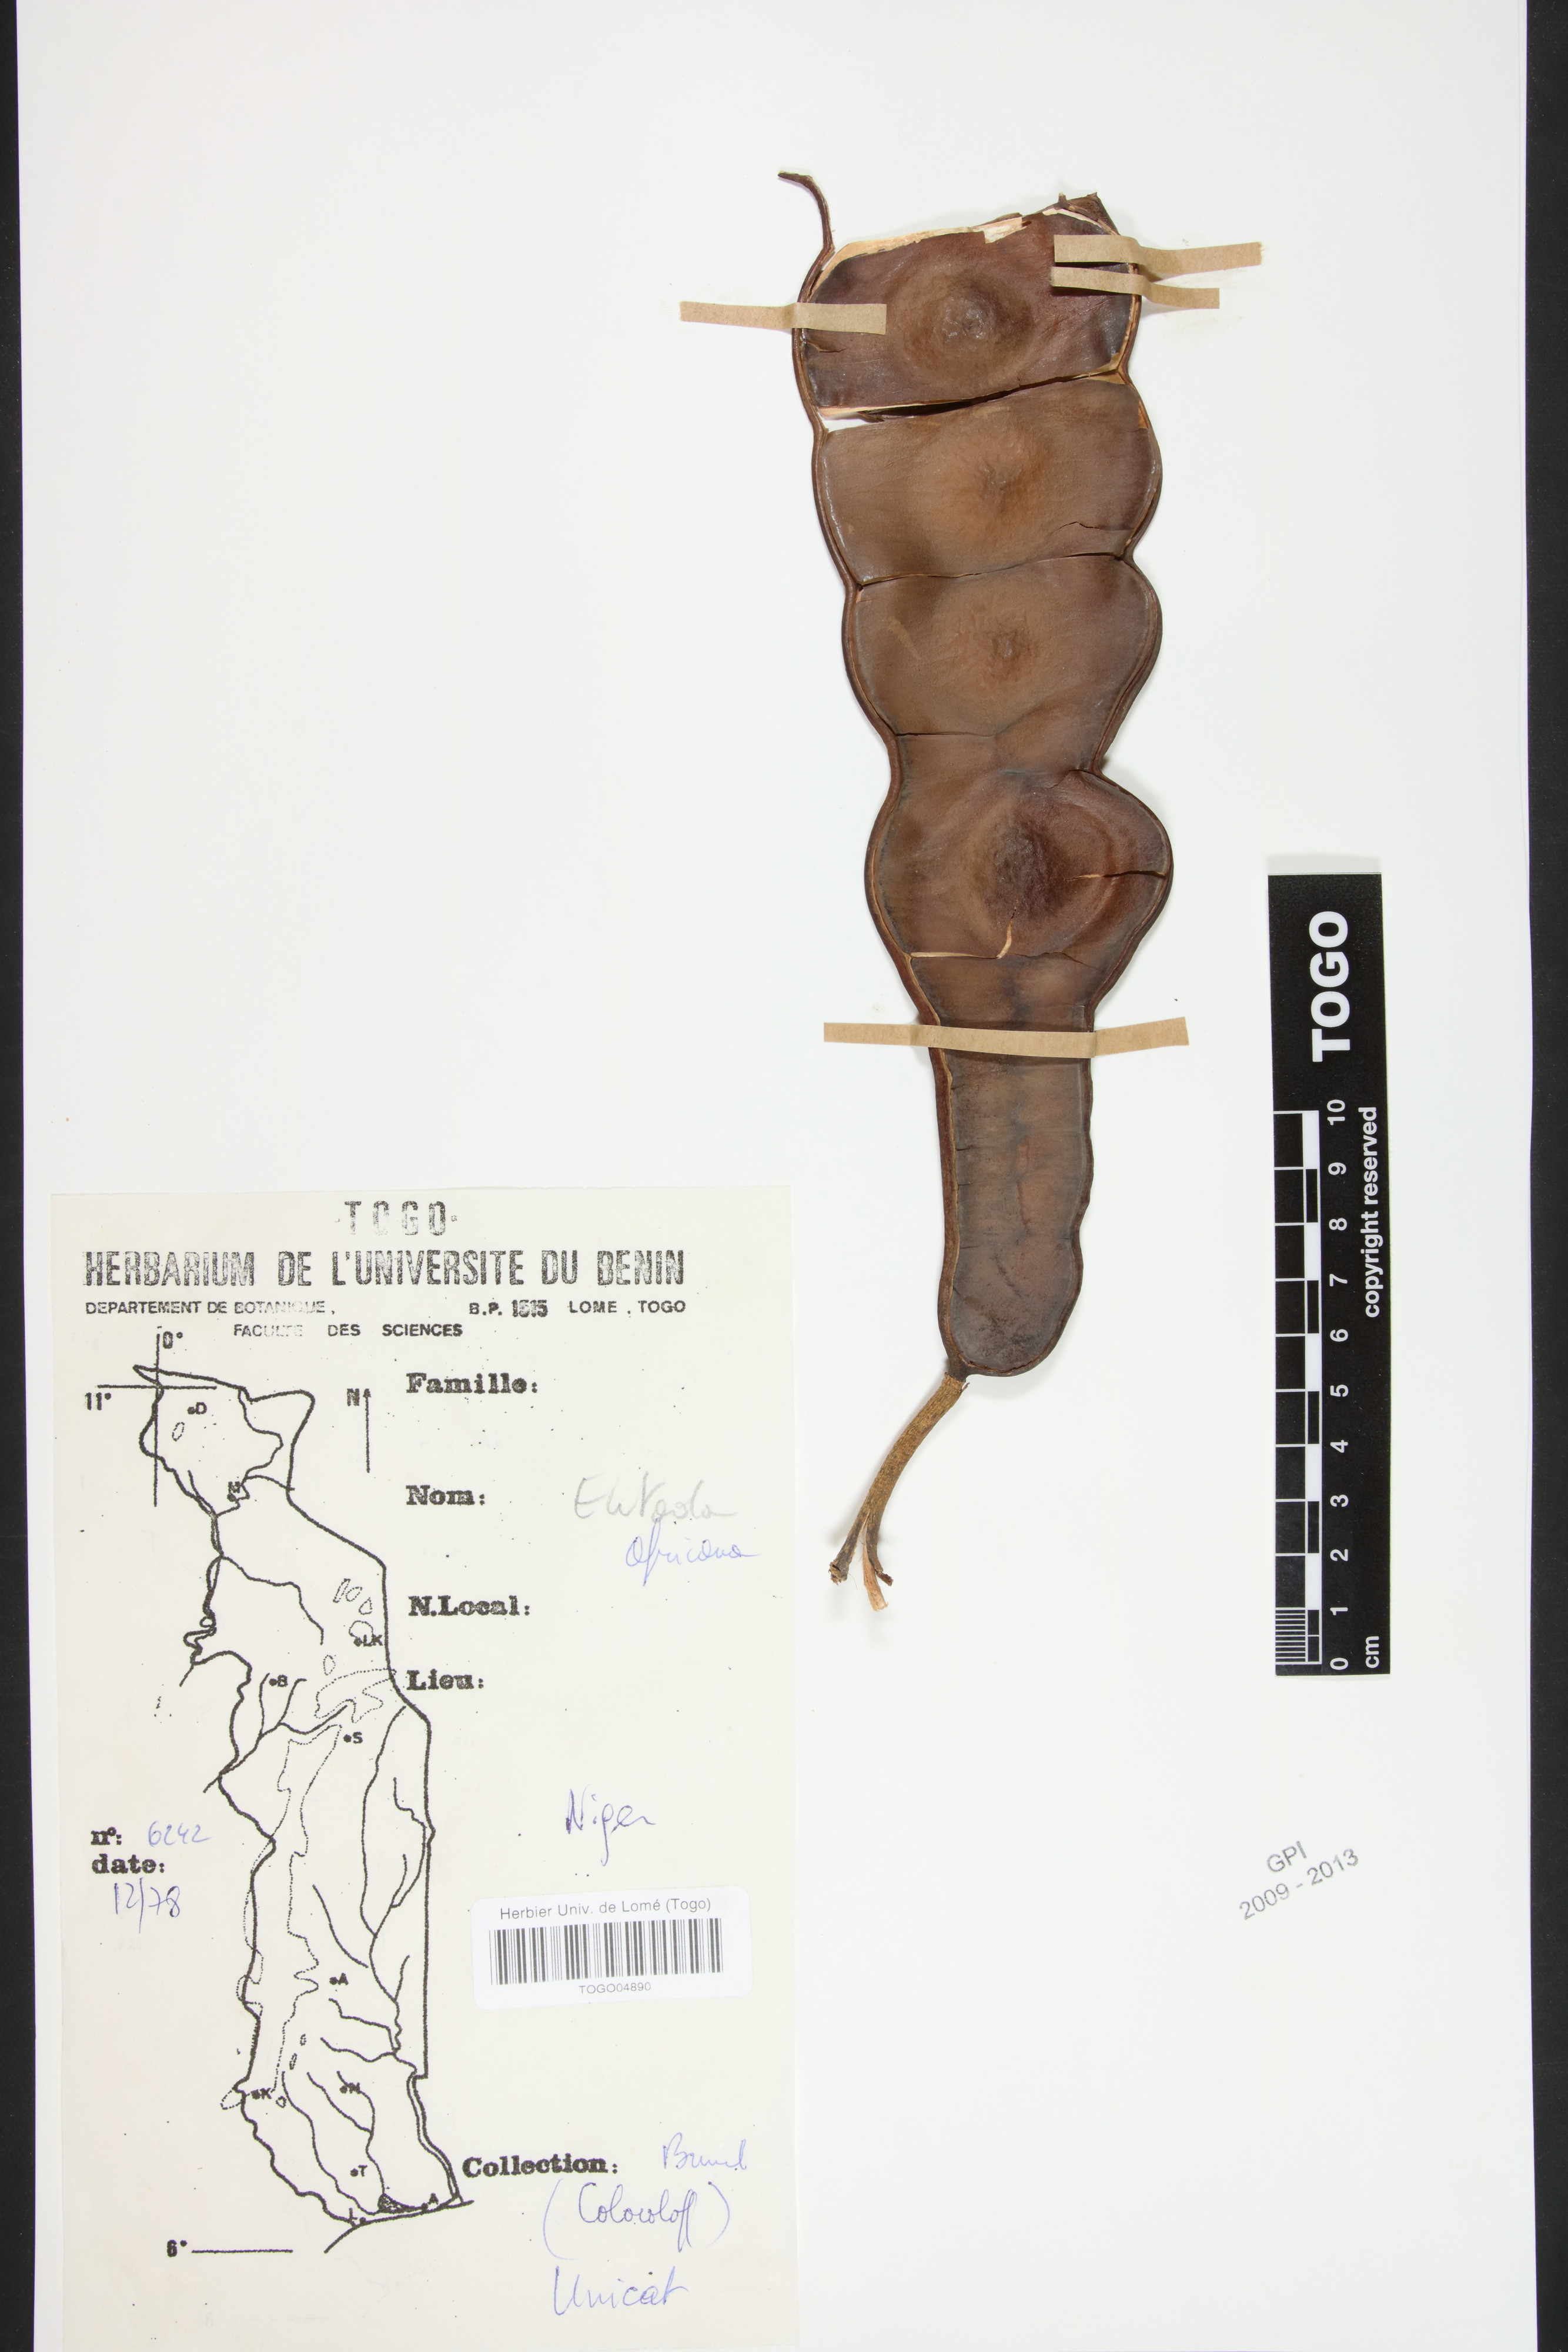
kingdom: Plantae
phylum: Tracheophyta
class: Magnoliopsida
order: Fabales
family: Fabaceae
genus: Entada
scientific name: Entada africana
